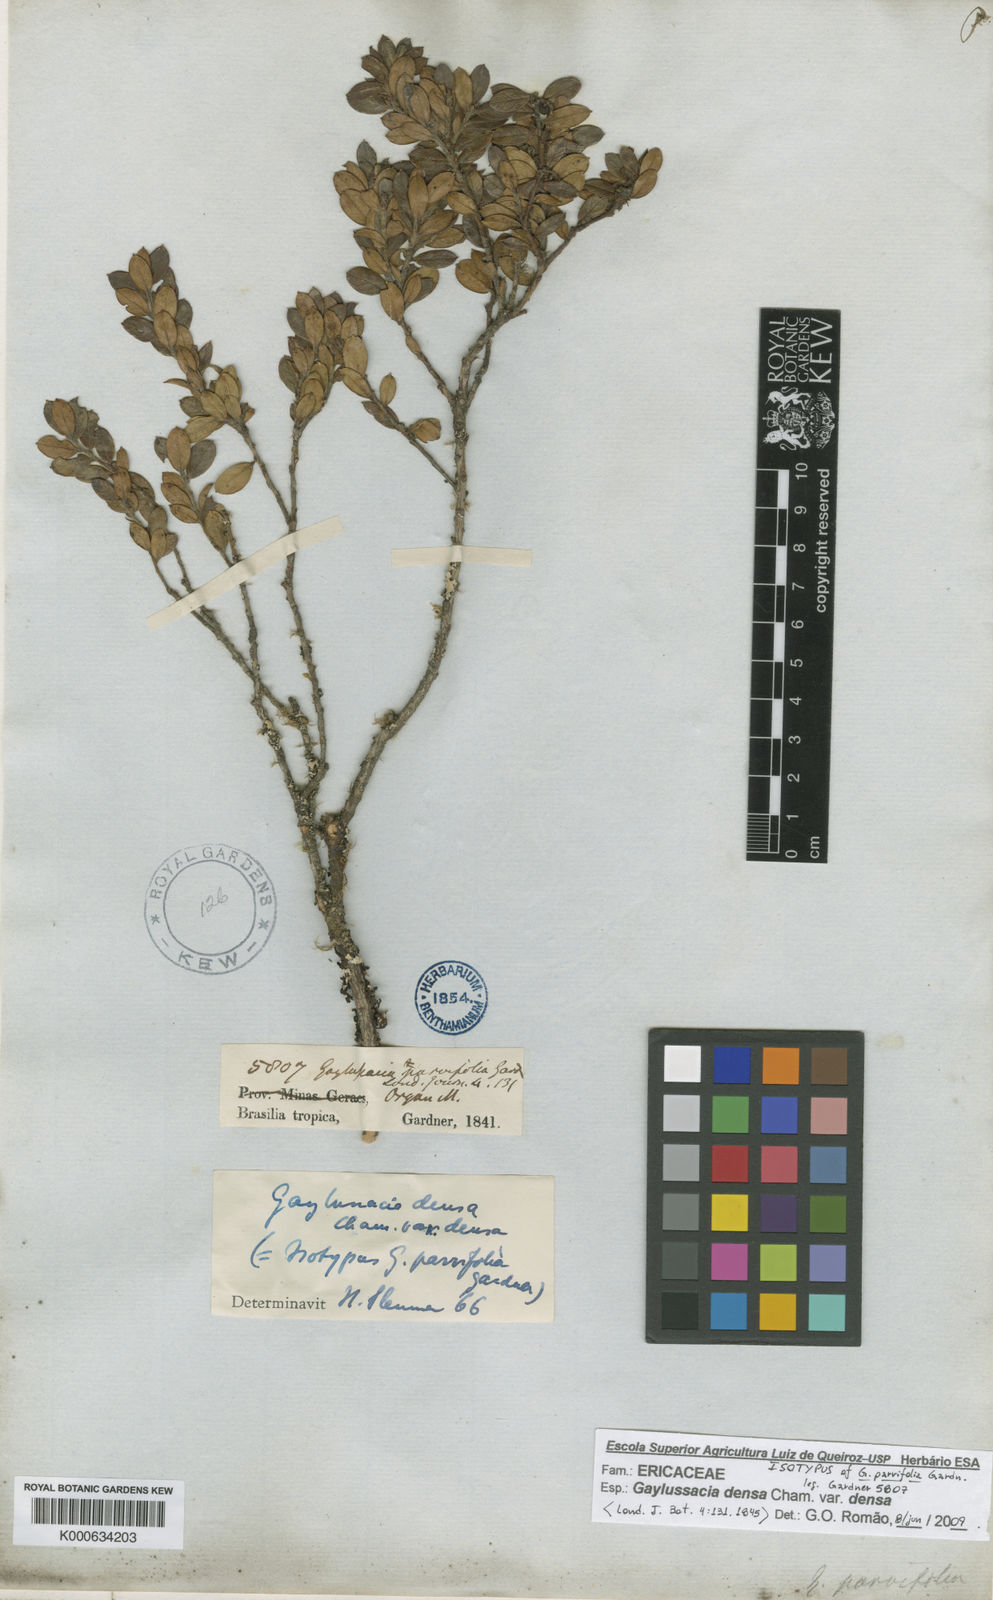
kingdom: Plantae
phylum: Tracheophyta
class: Magnoliopsida
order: Ericales
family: Ericaceae
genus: Gaylussacia
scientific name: Gaylussacia densa
